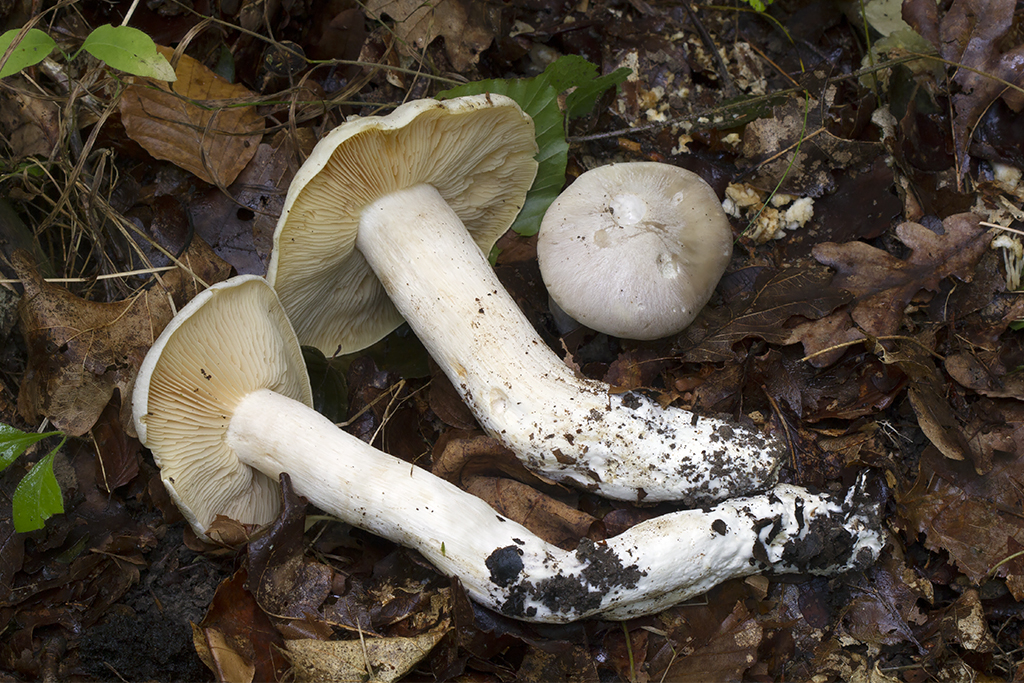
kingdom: Fungi
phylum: Basidiomycota
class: Agaricomycetes
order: Agaricales
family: Entolomataceae
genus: Entoloma
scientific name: Entoloma sinuatum
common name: giftig rødblad
